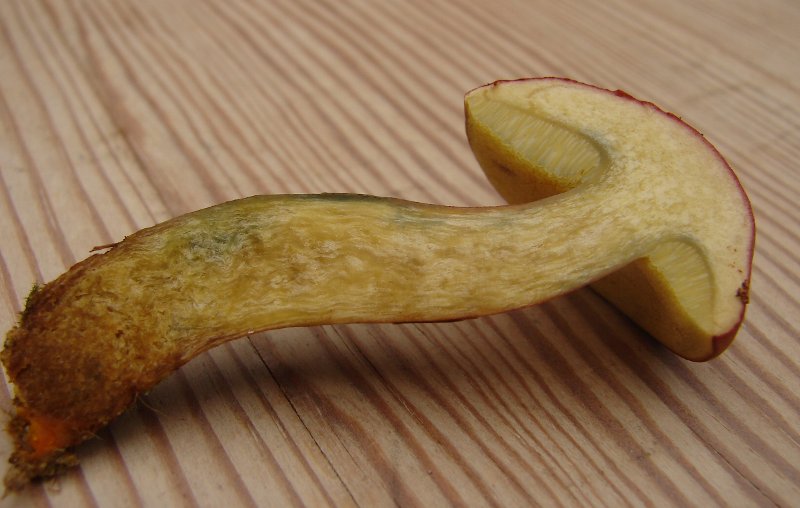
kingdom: Fungi
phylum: Basidiomycota
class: Agaricomycetes
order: Boletales
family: Boletaceae
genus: Hortiboletus
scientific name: Hortiboletus rubellus
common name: blodrød rørhat
